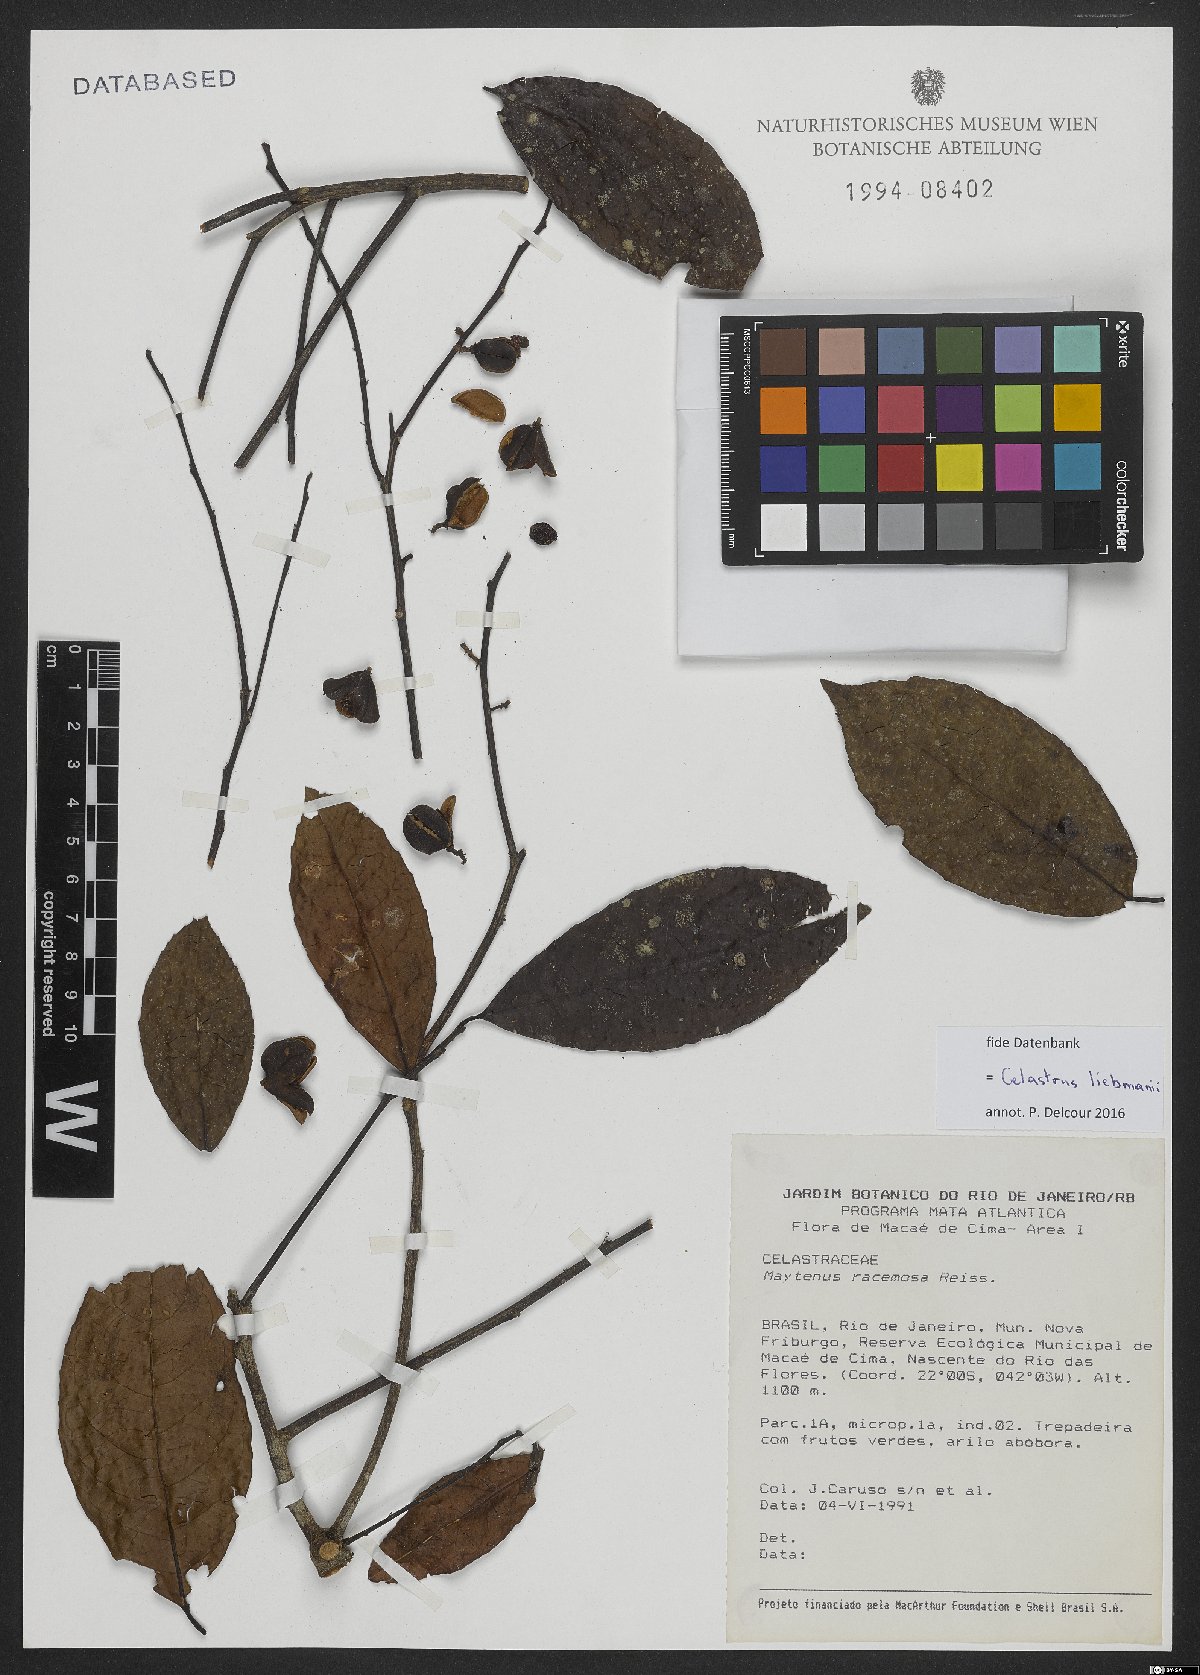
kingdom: Plantae
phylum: Tracheophyta
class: Magnoliopsida
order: Celastrales
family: Celastraceae
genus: Celastrus
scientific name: Celastrus grenadensis
